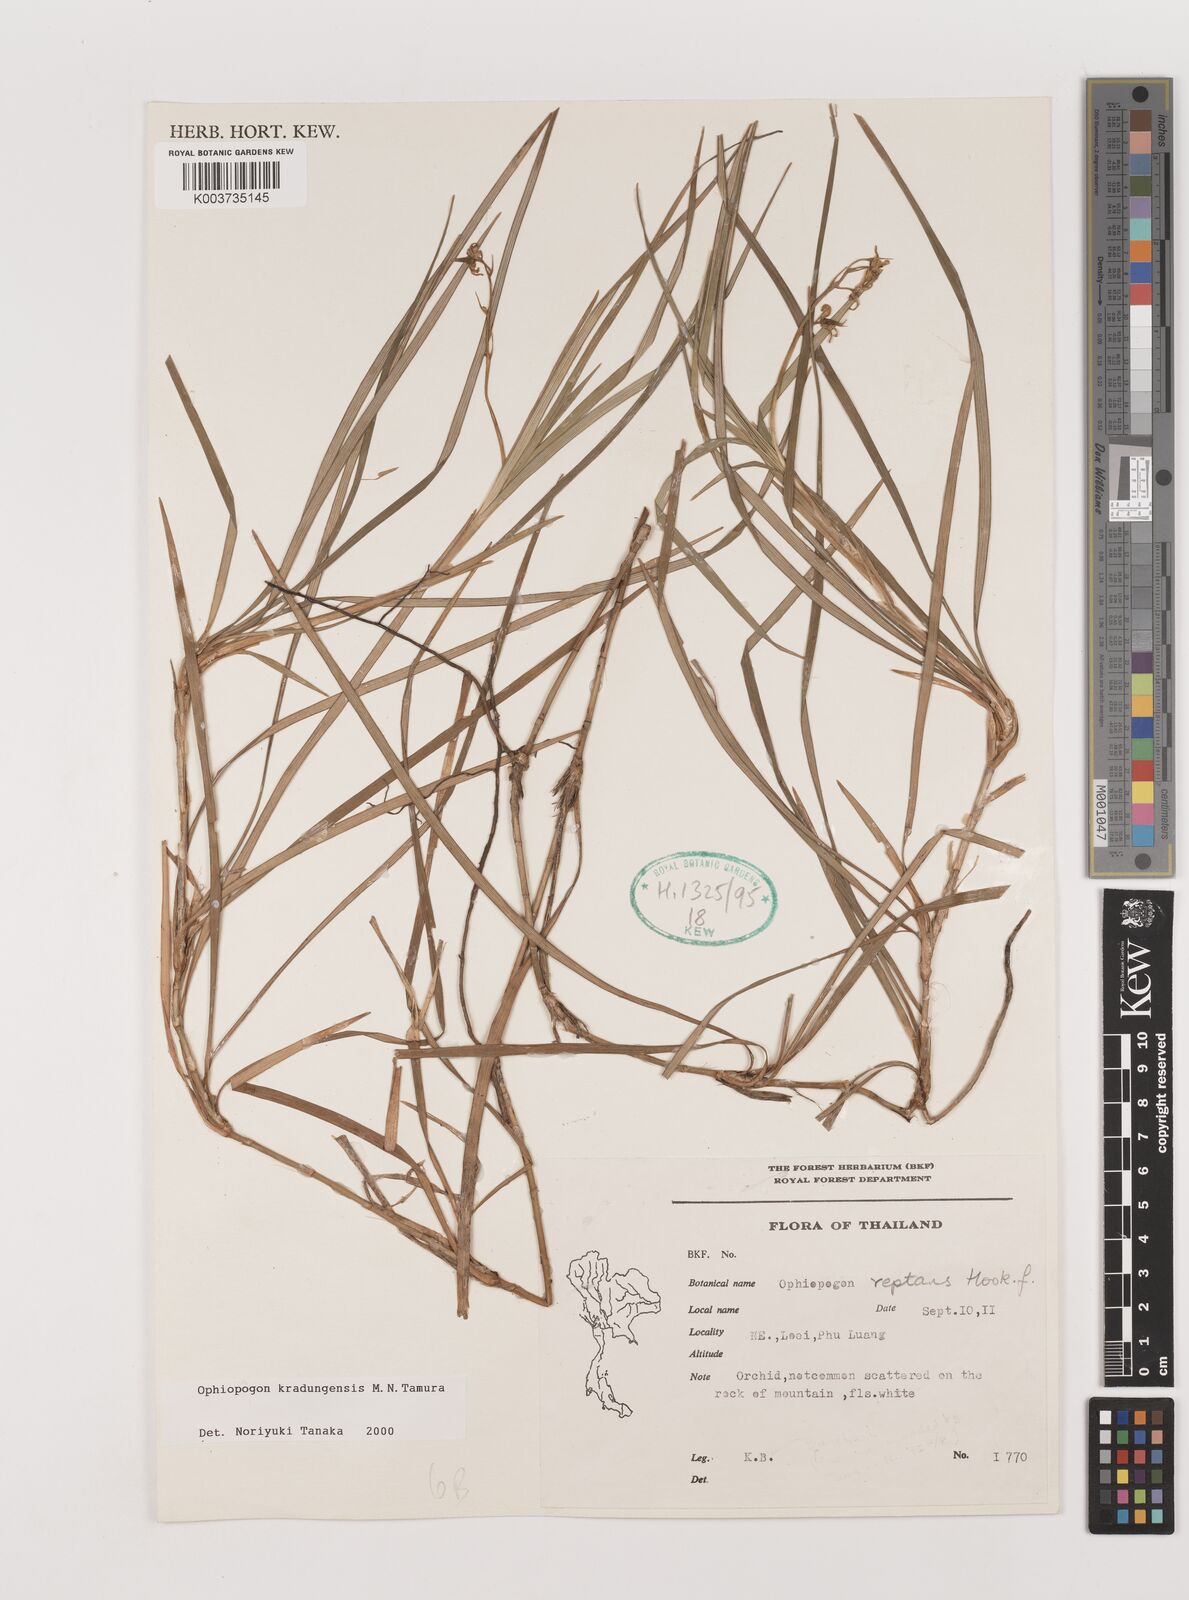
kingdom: Plantae
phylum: Tracheophyta
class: Liliopsida
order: Asparagales
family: Asparagaceae
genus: Ophiopogon
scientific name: Ophiopogon kradungensis
